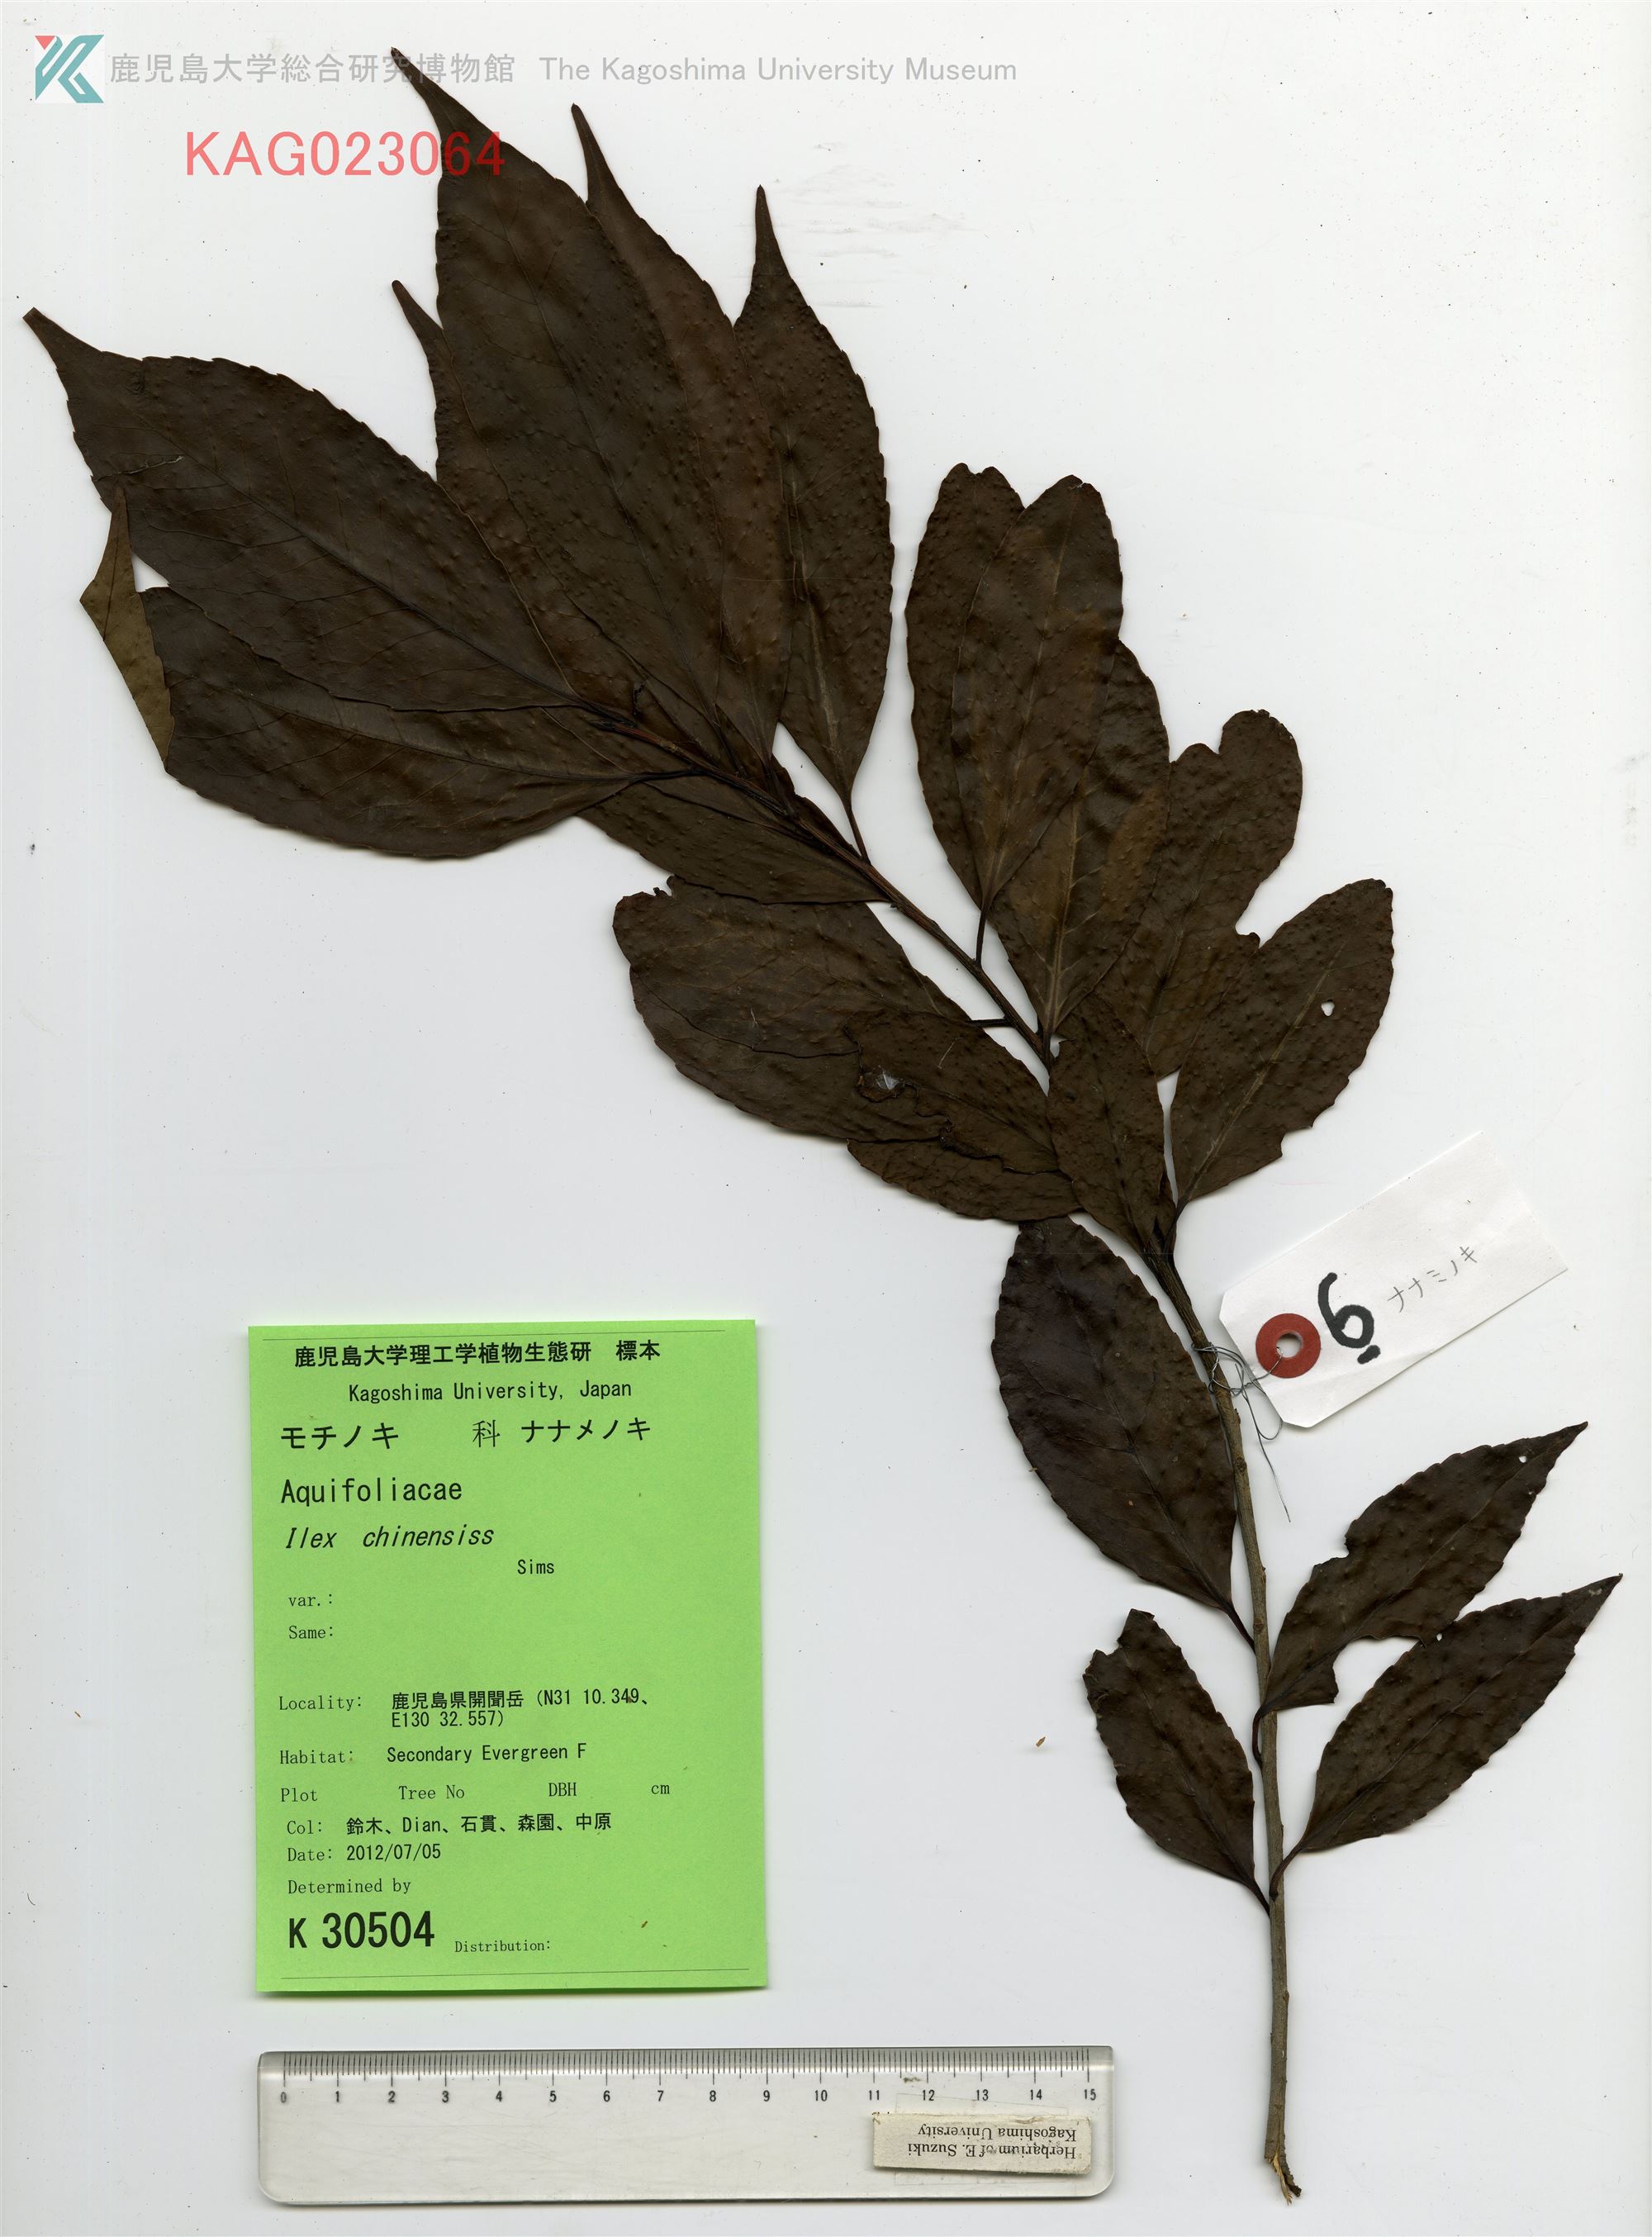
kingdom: Plantae
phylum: Tracheophyta
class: Magnoliopsida
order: Aquifoliales
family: Aquifoliaceae
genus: Ilex
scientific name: Ilex chinensis
